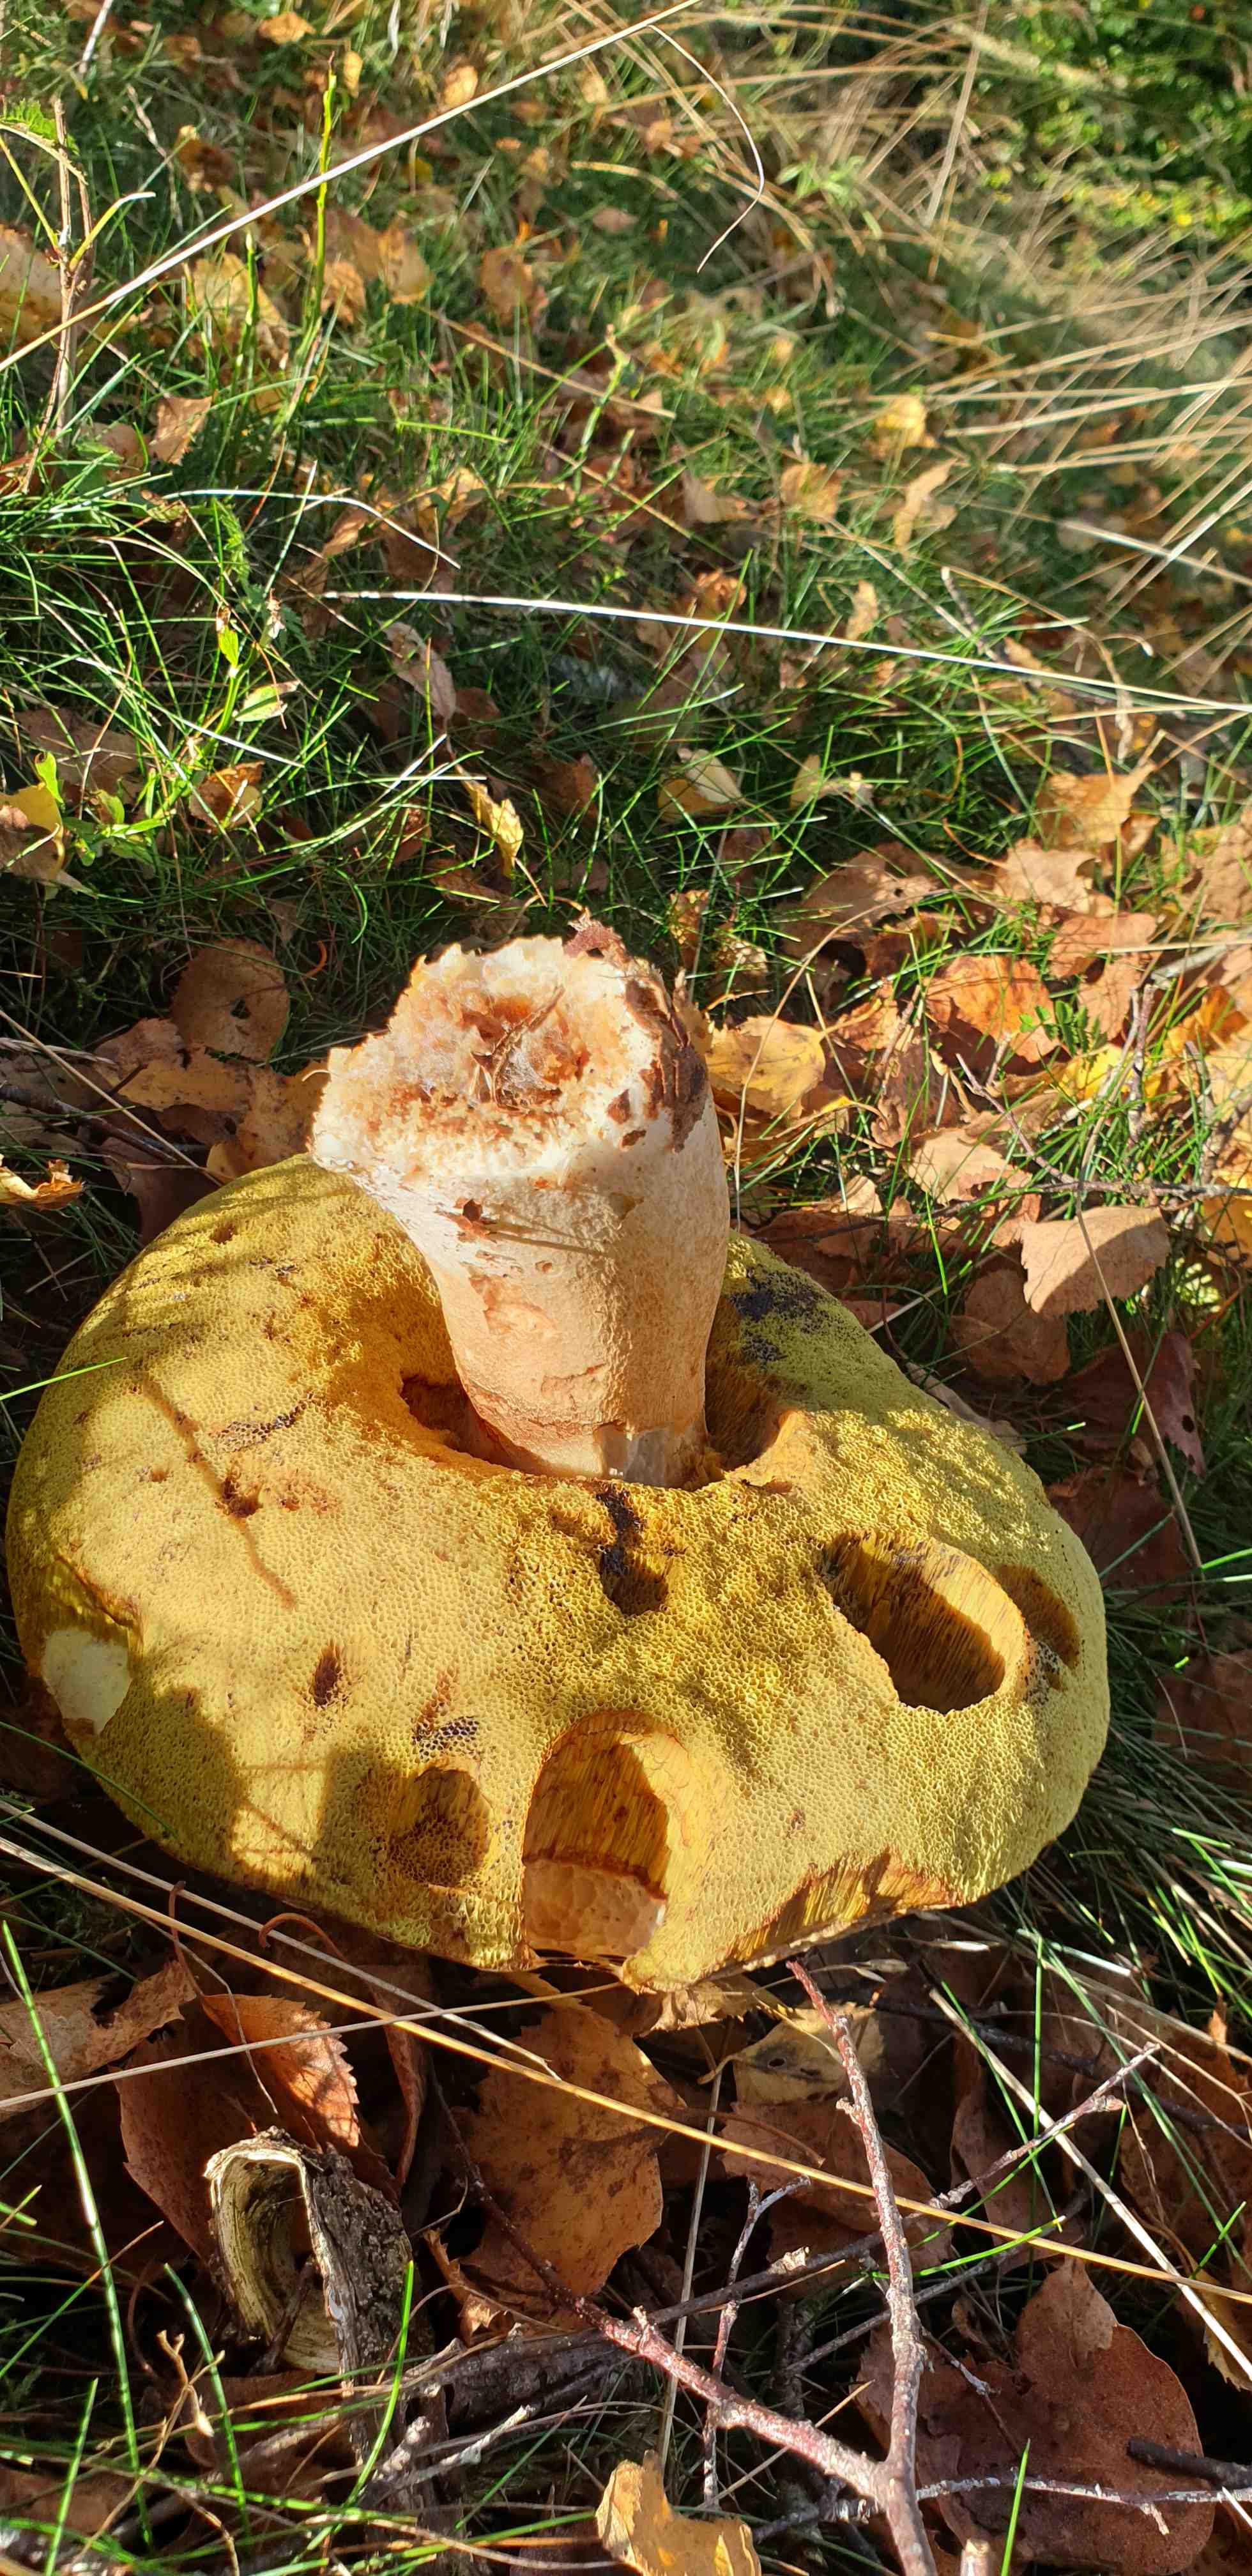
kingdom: Fungi
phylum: Basidiomycota
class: Agaricomycetes
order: Boletales
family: Boletaceae
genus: Boletus
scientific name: Boletus edulis
